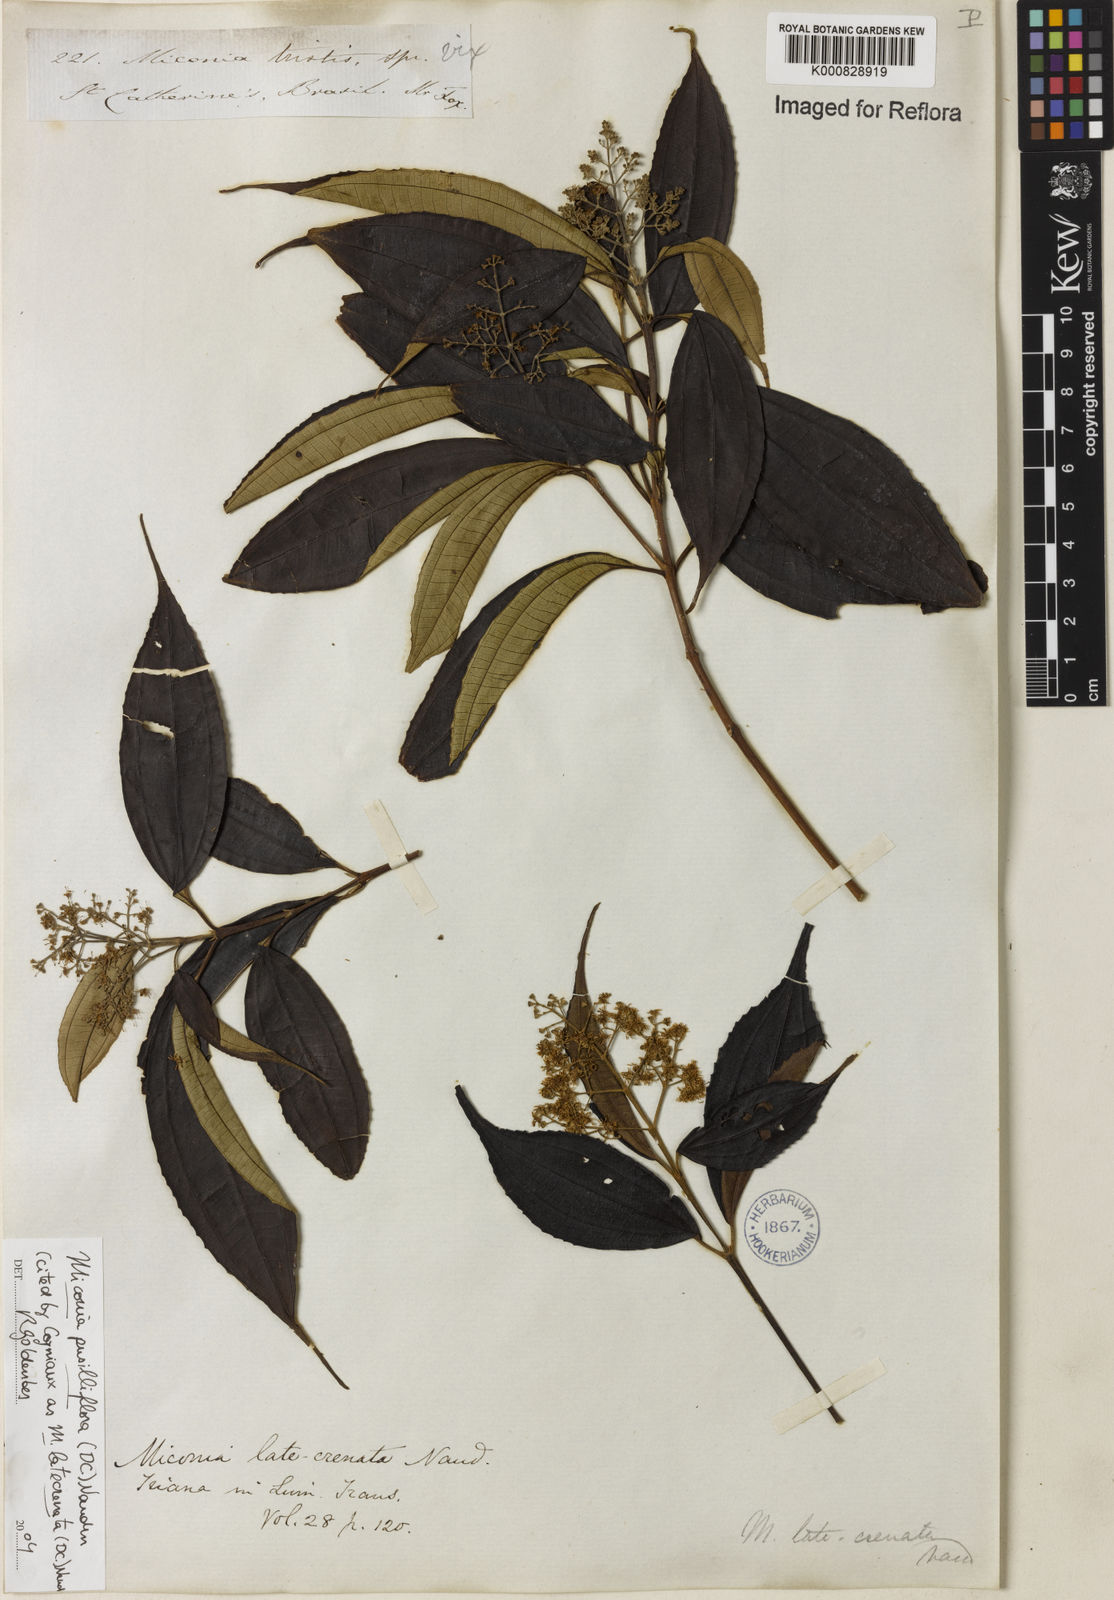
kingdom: Plantae
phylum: Tracheophyta
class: Magnoliopsida
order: Myrtales
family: Melastomataceae
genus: Miconia
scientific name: Miconia latecrenata
